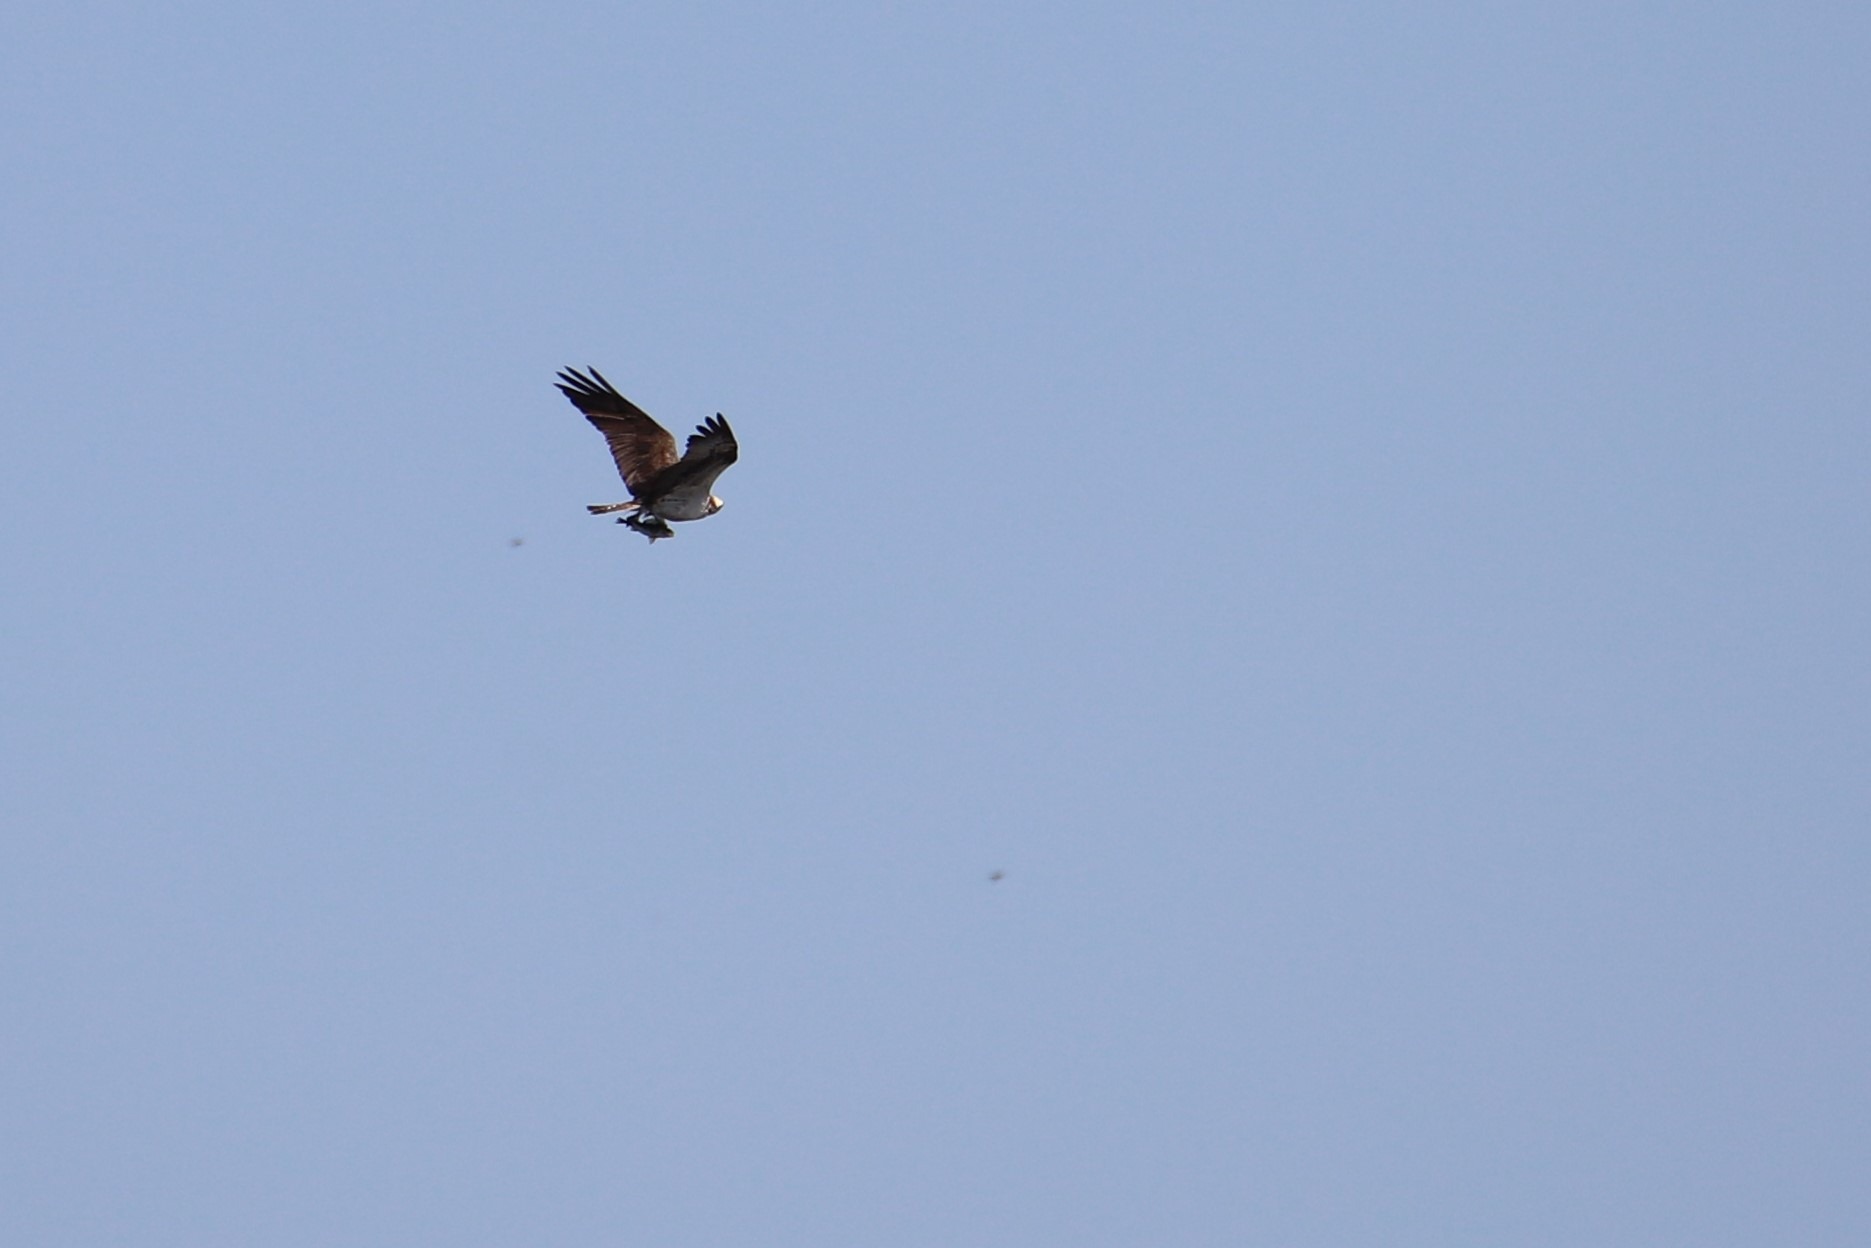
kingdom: Animalia
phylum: Chordata
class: Aves
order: Accipitriformes
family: Pandionidae
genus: Pandion
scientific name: Pandion haliaetus
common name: Fiskeørn
